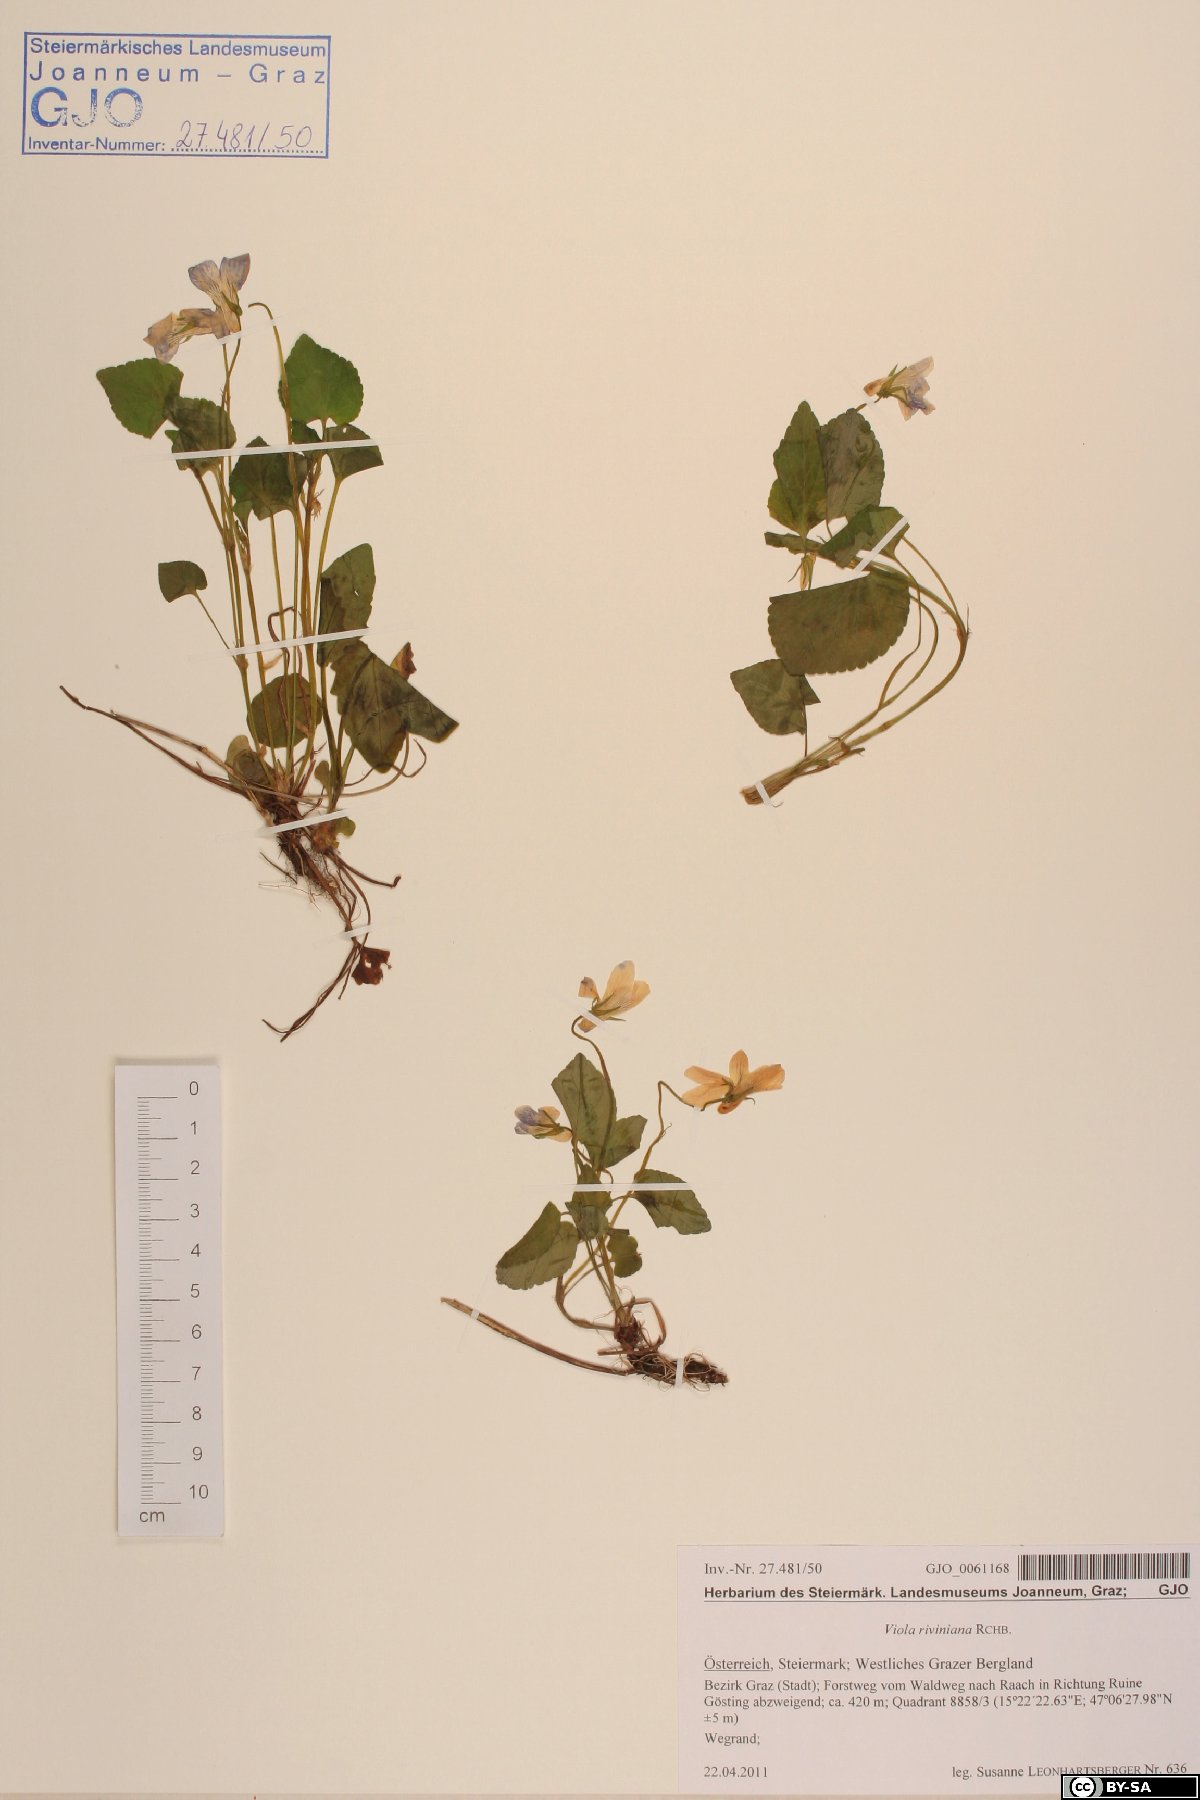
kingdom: Plantae
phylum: Tracheophyta
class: Magnoliopsida
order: Malpighiales
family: Violaceae
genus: Viola
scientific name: Viola riviniana
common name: Common dog-violet
